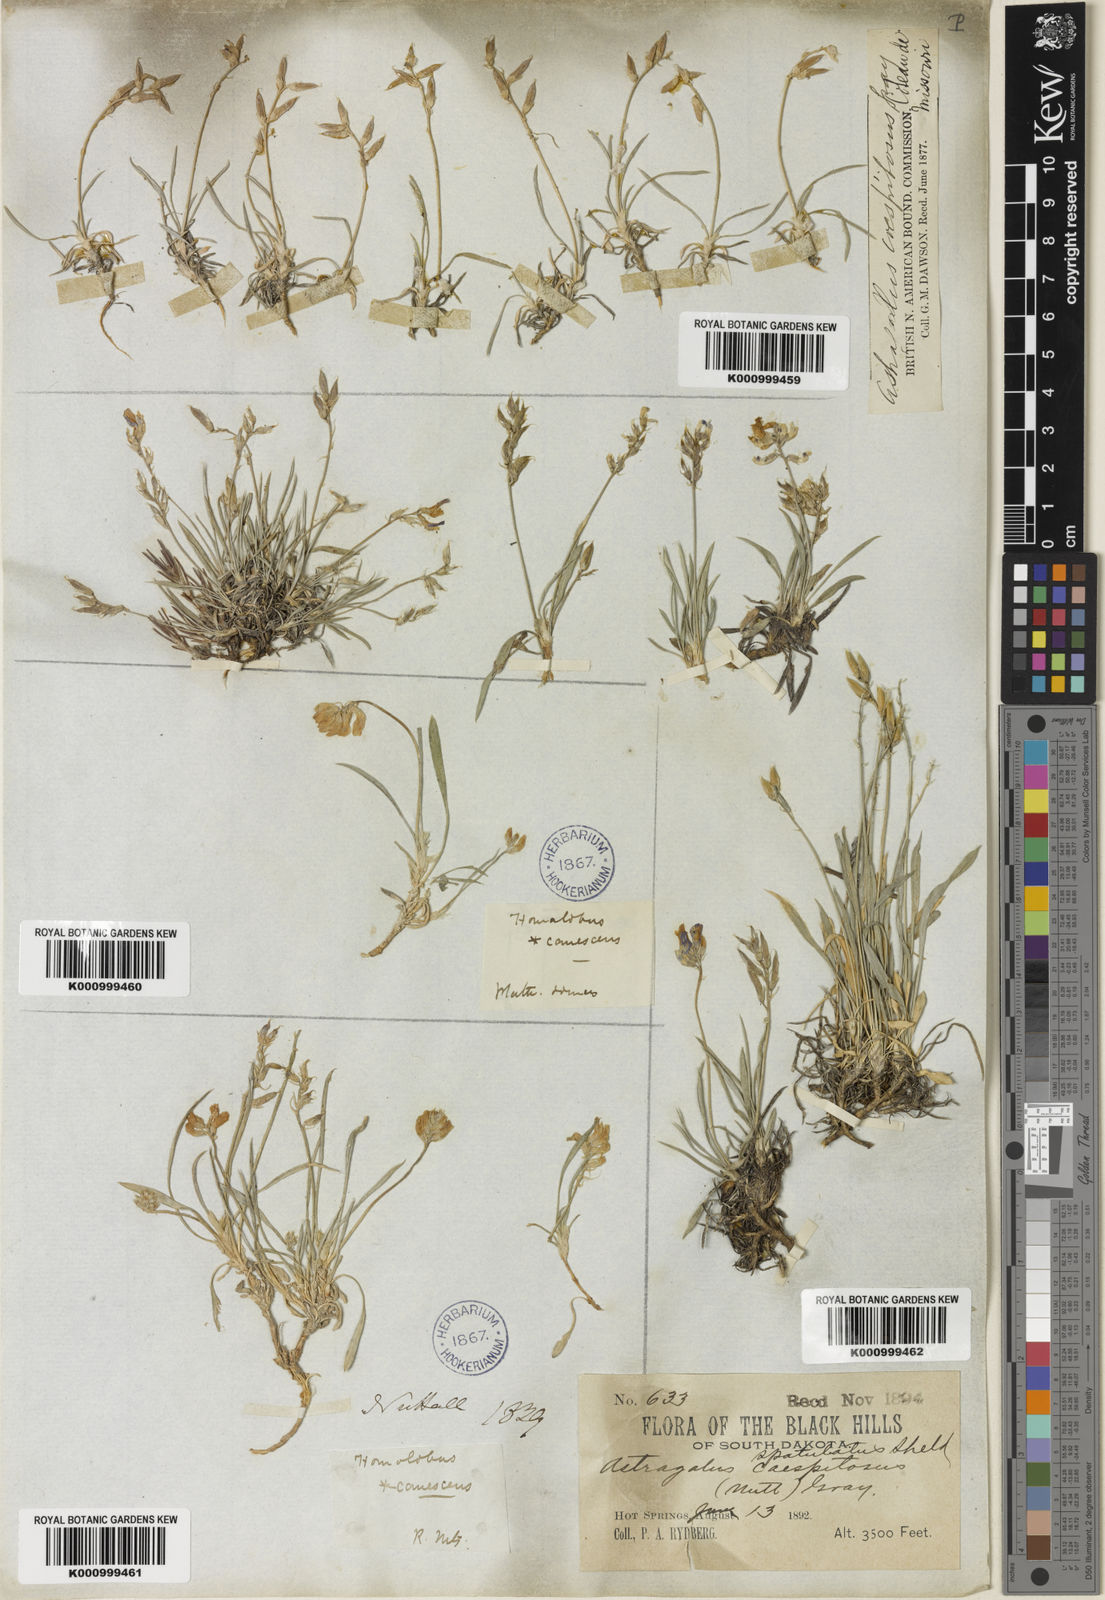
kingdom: Plantae
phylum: Tracheophyta
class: Magnoliopsida
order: Fabales
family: Fabaceae
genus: Oxytropis
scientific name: Oxytropis caespitosa
